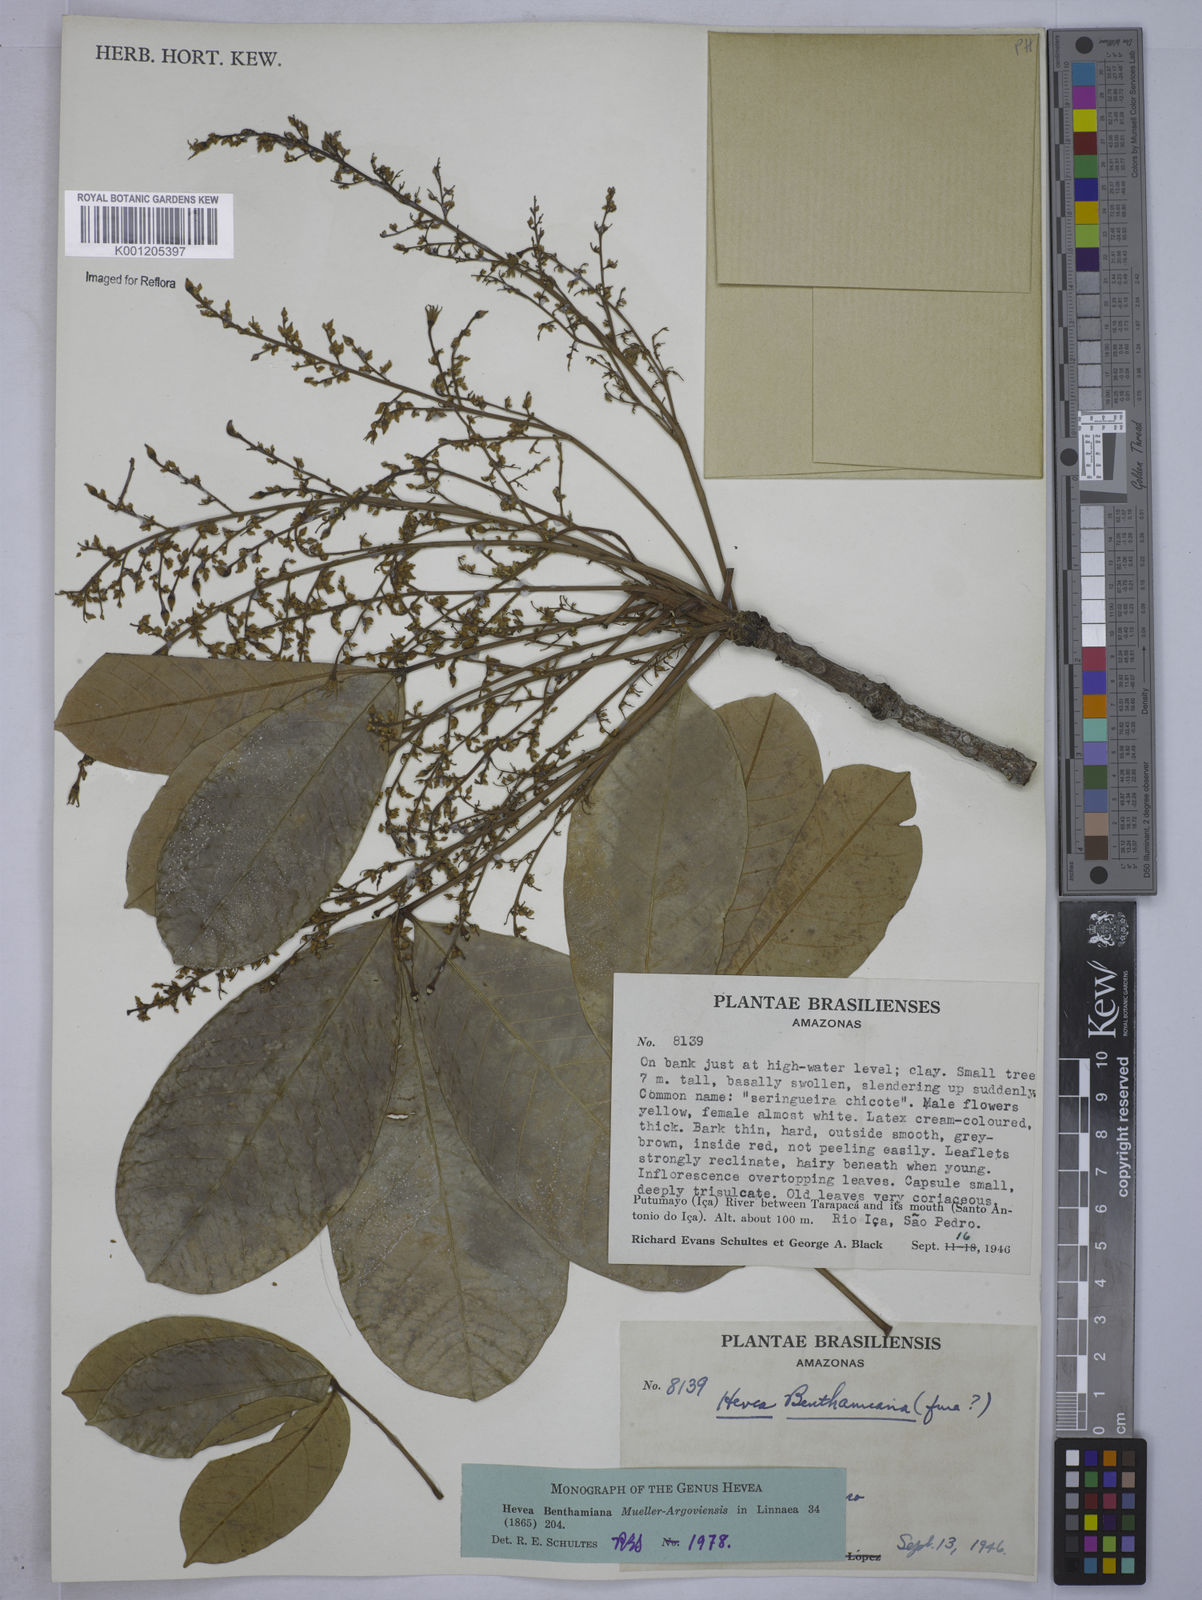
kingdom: Plantae
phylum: Tracheophyta
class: Magnoliopsida
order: Malpighiales
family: Euphorbiaceae
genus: Hevea
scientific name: Hevea
